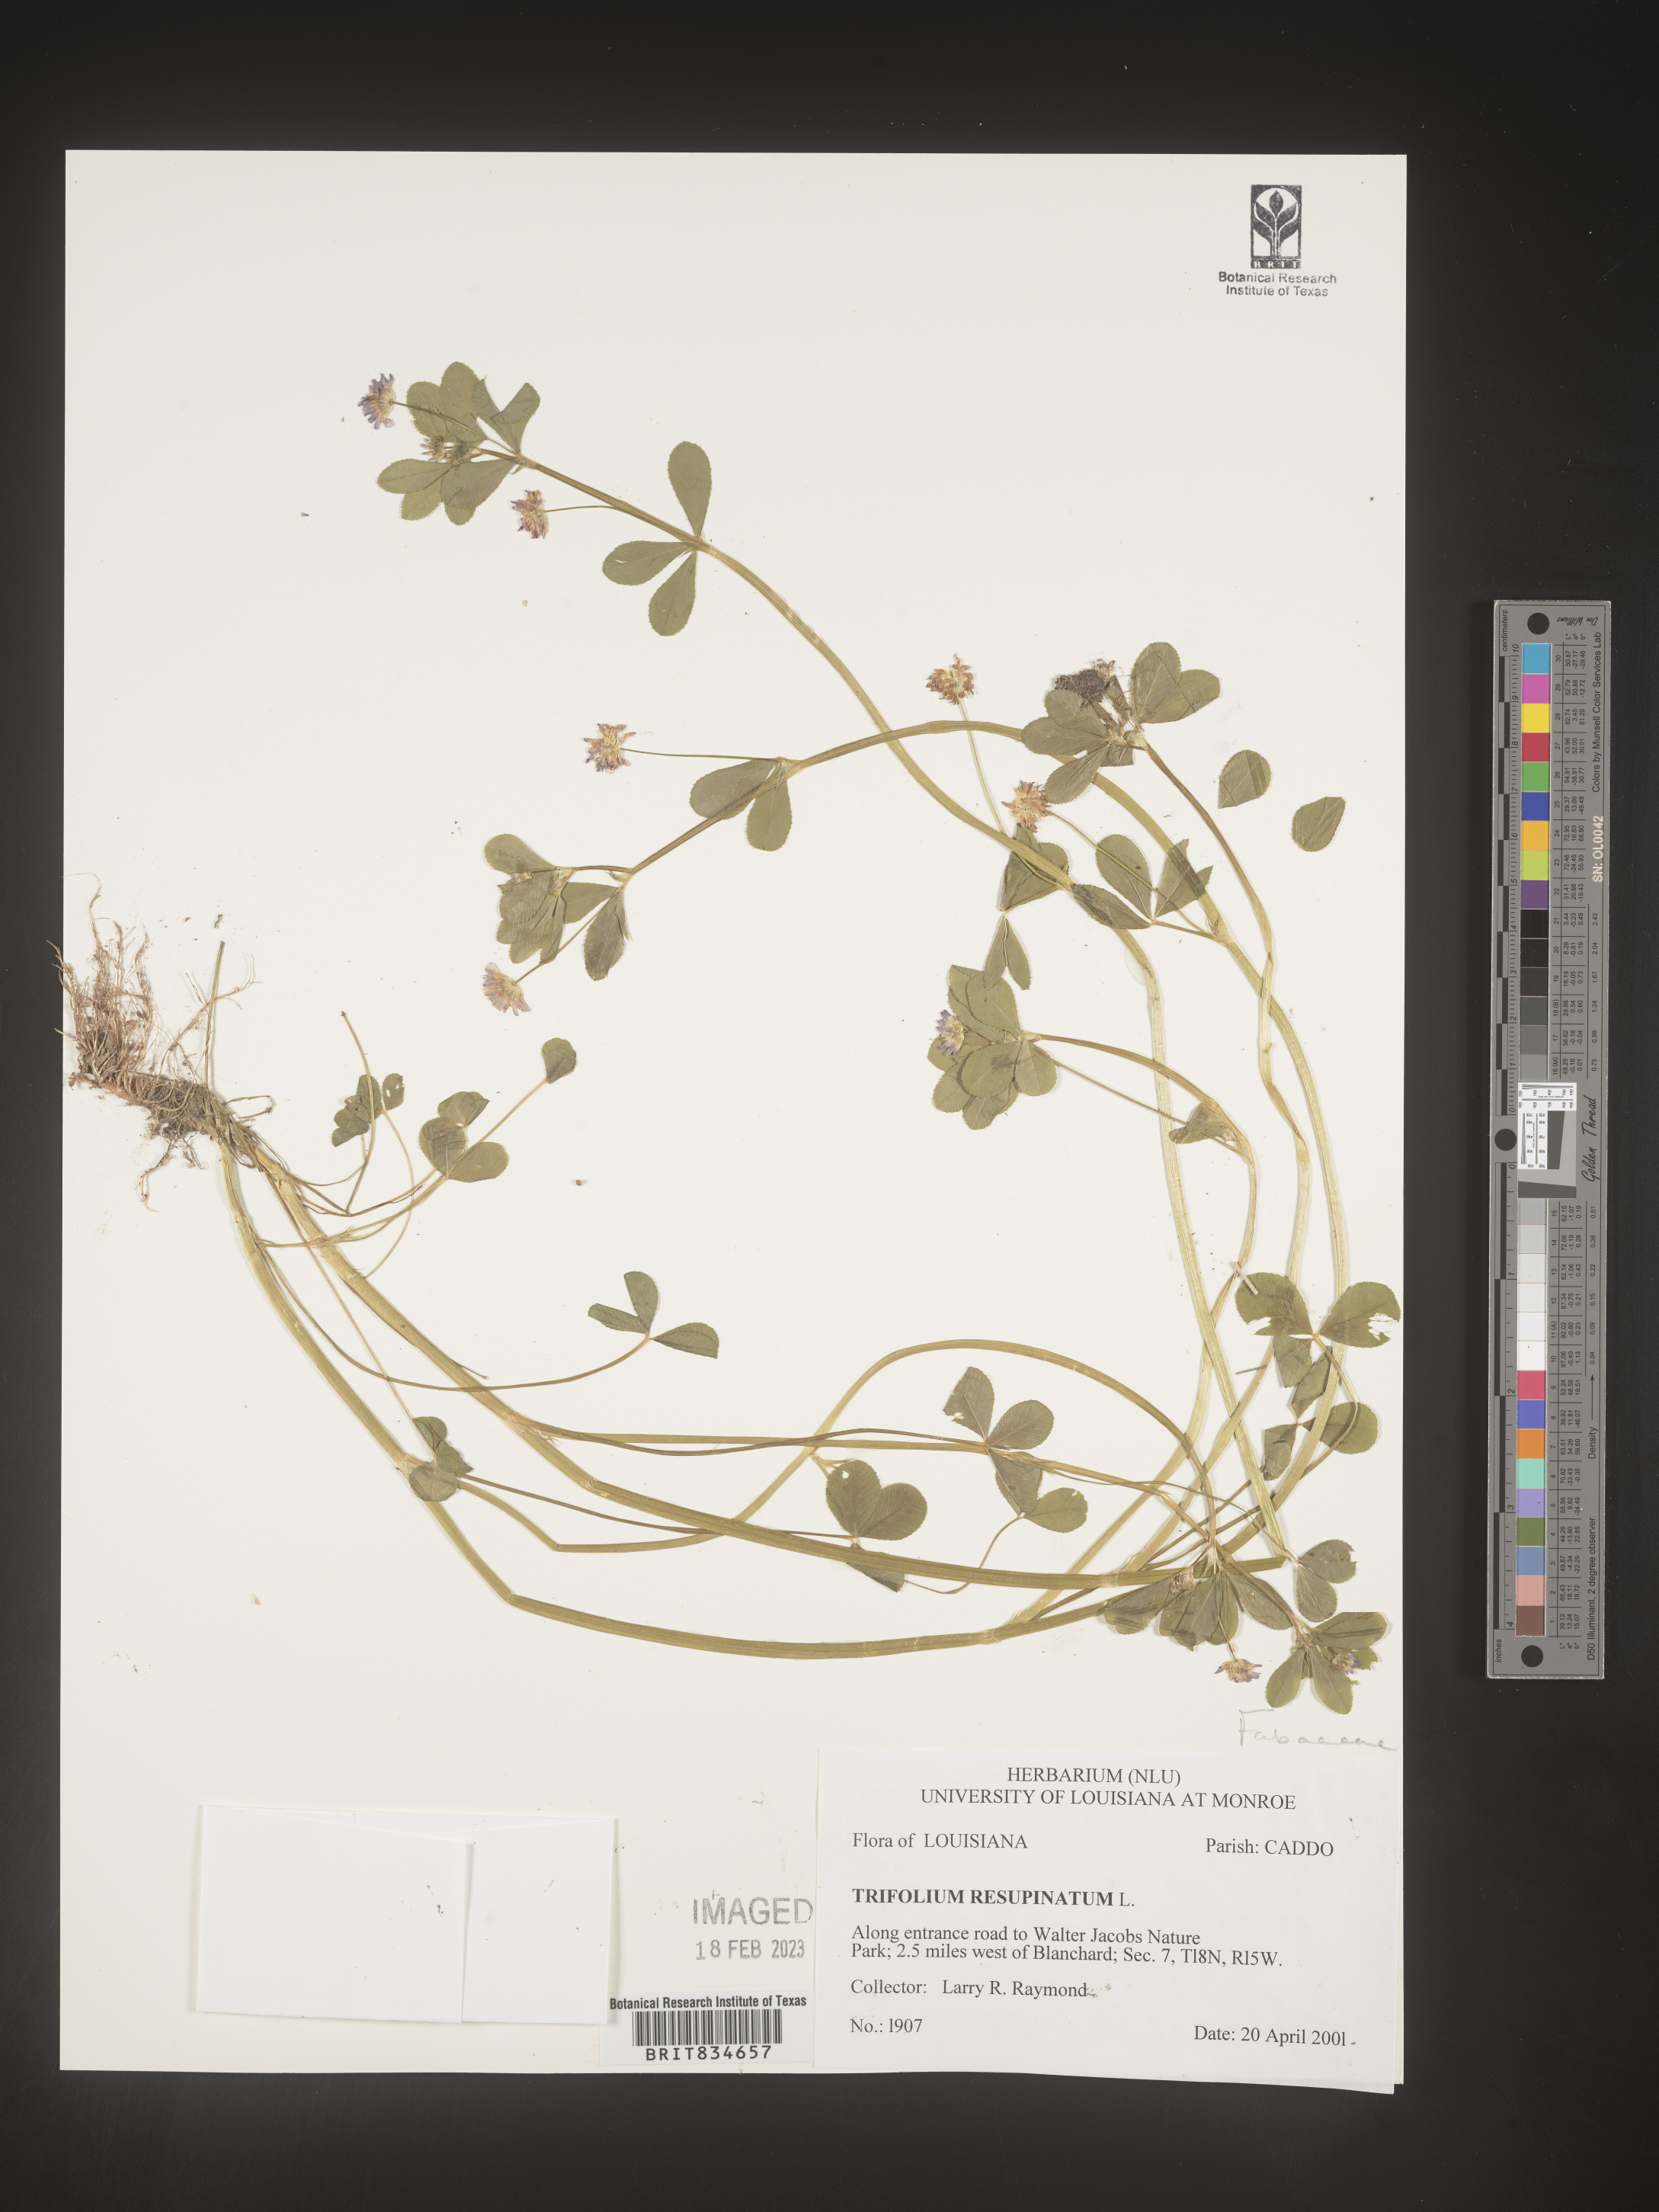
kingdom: Plantae
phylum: Tracheophyta
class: Magnoliopsida
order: Fabales
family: Fabaceae
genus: Trifolium
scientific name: Trifolium resupinatum
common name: Reversed clover
